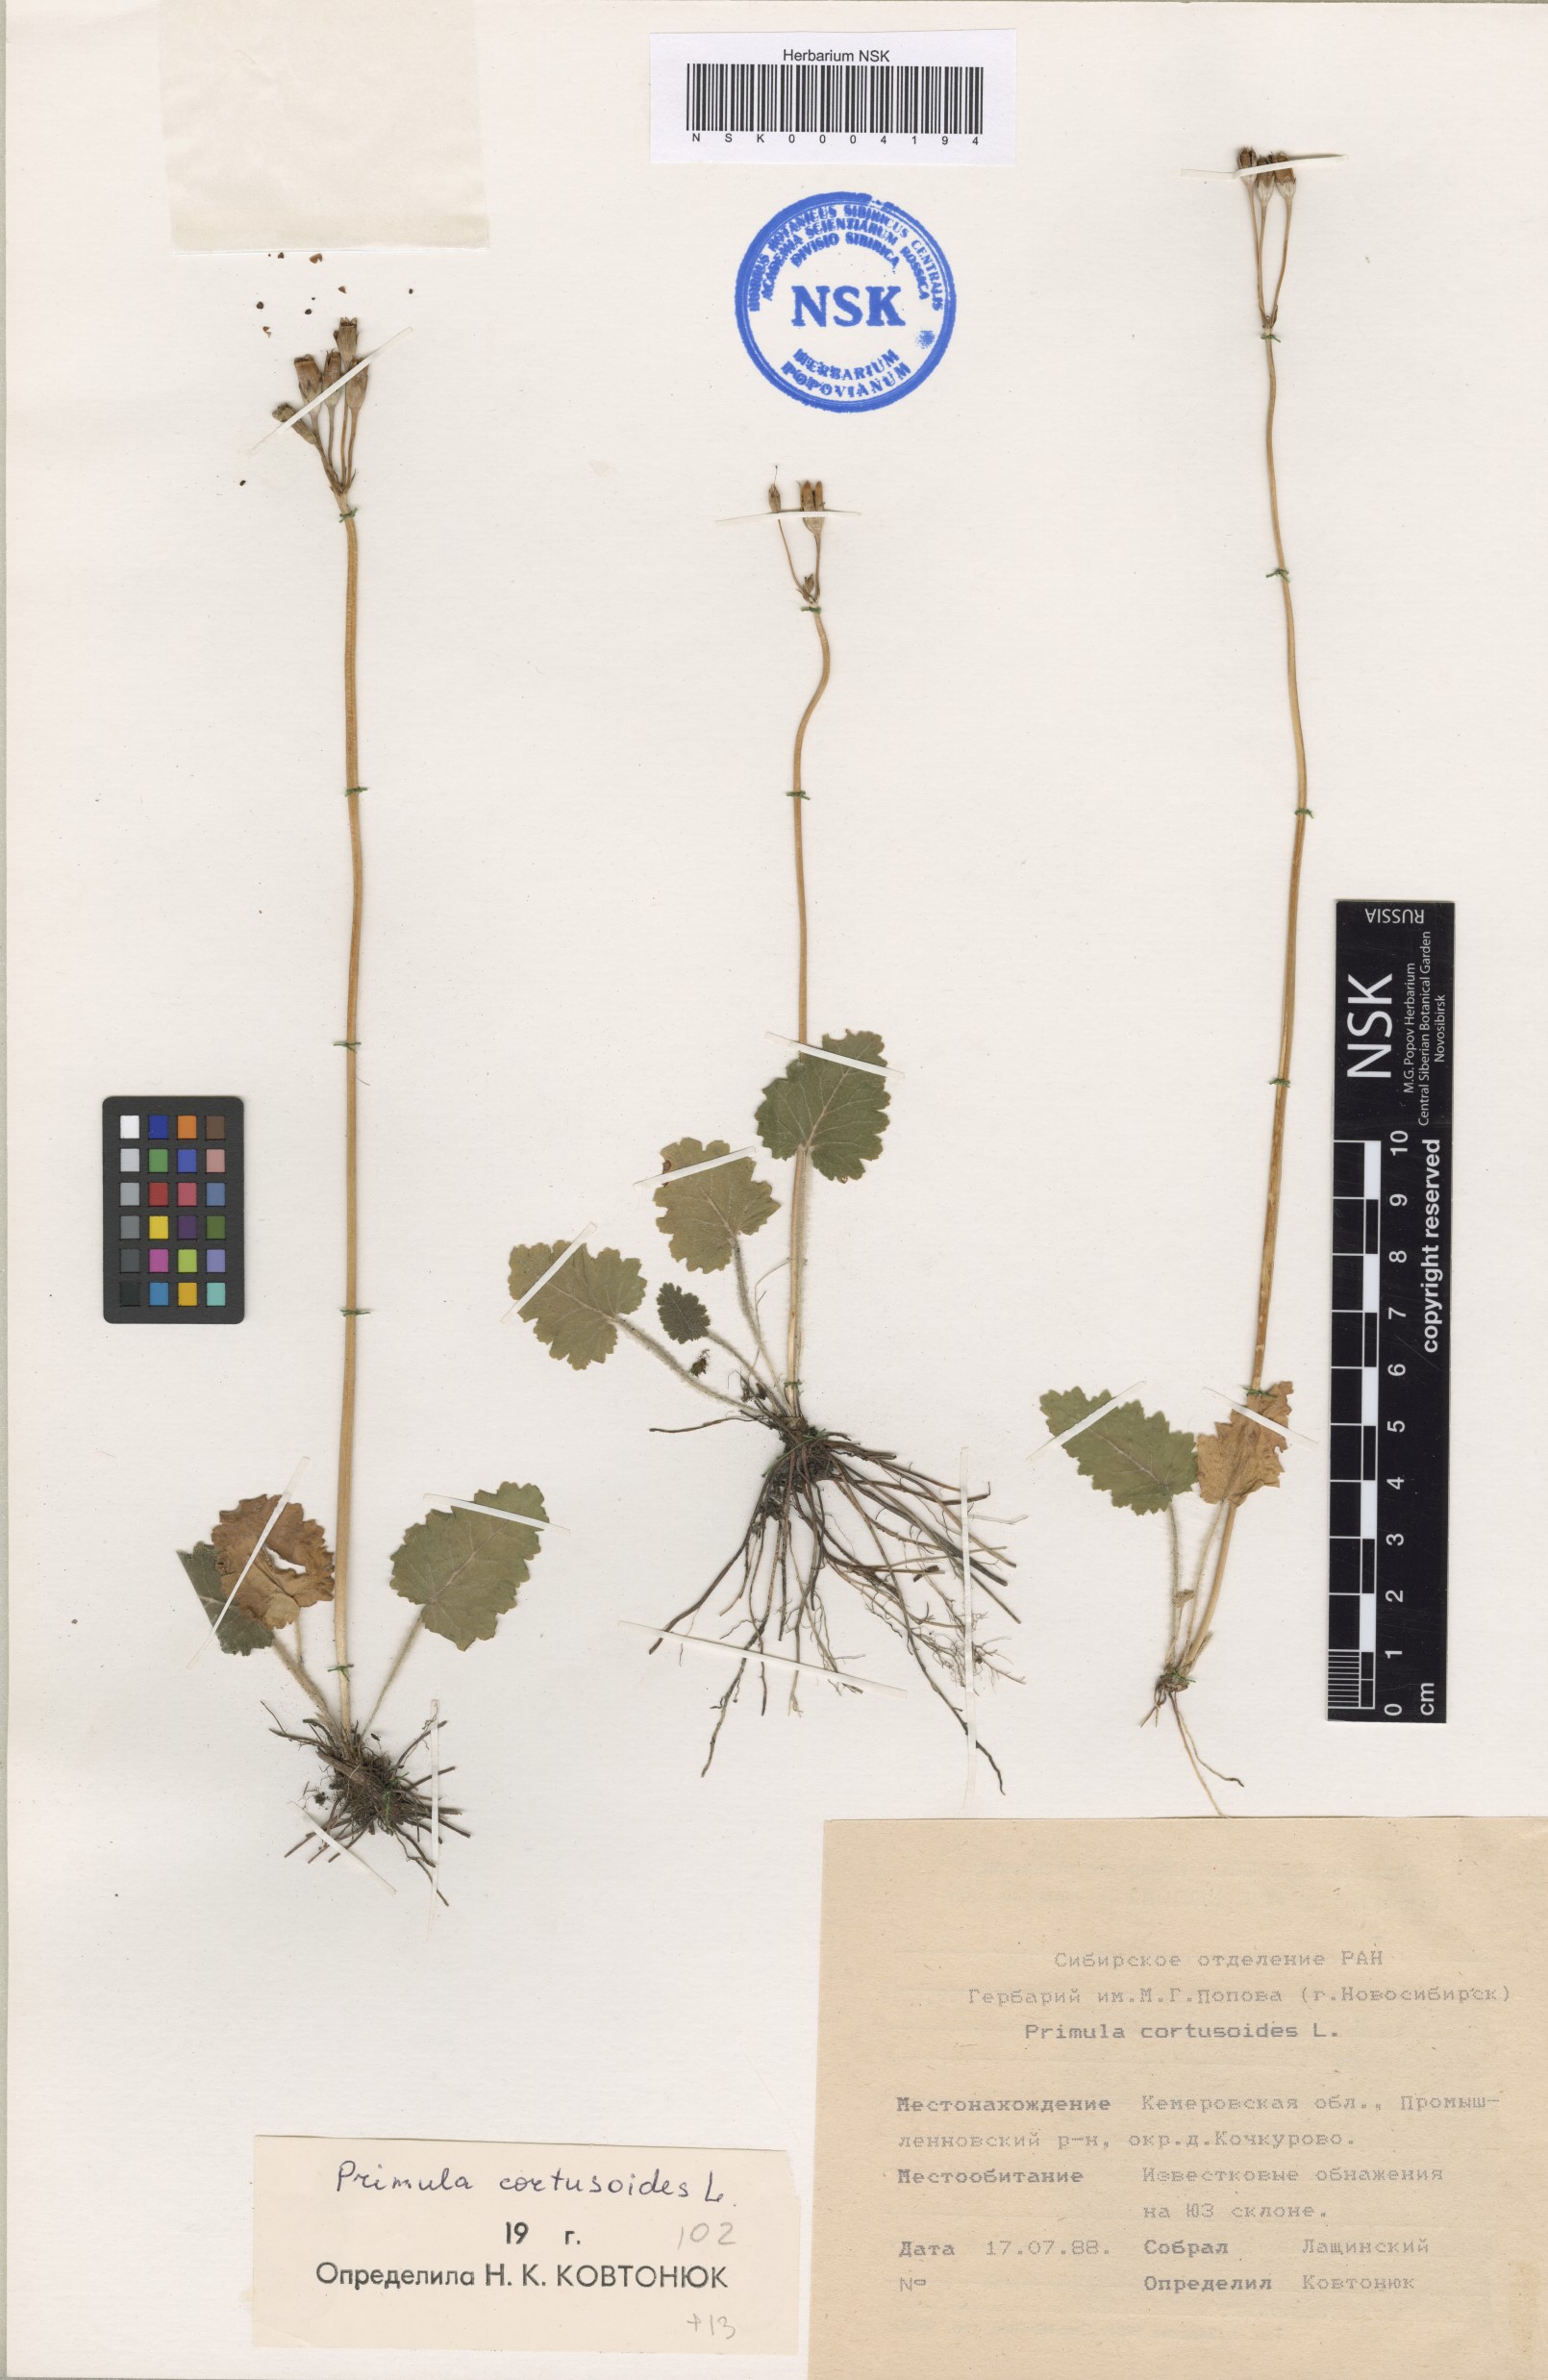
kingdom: Plantae
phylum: Tracheophyta
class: Magnoliopsida
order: Ericales
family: Primulaceae
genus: Primula
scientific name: Primula cortusoides
